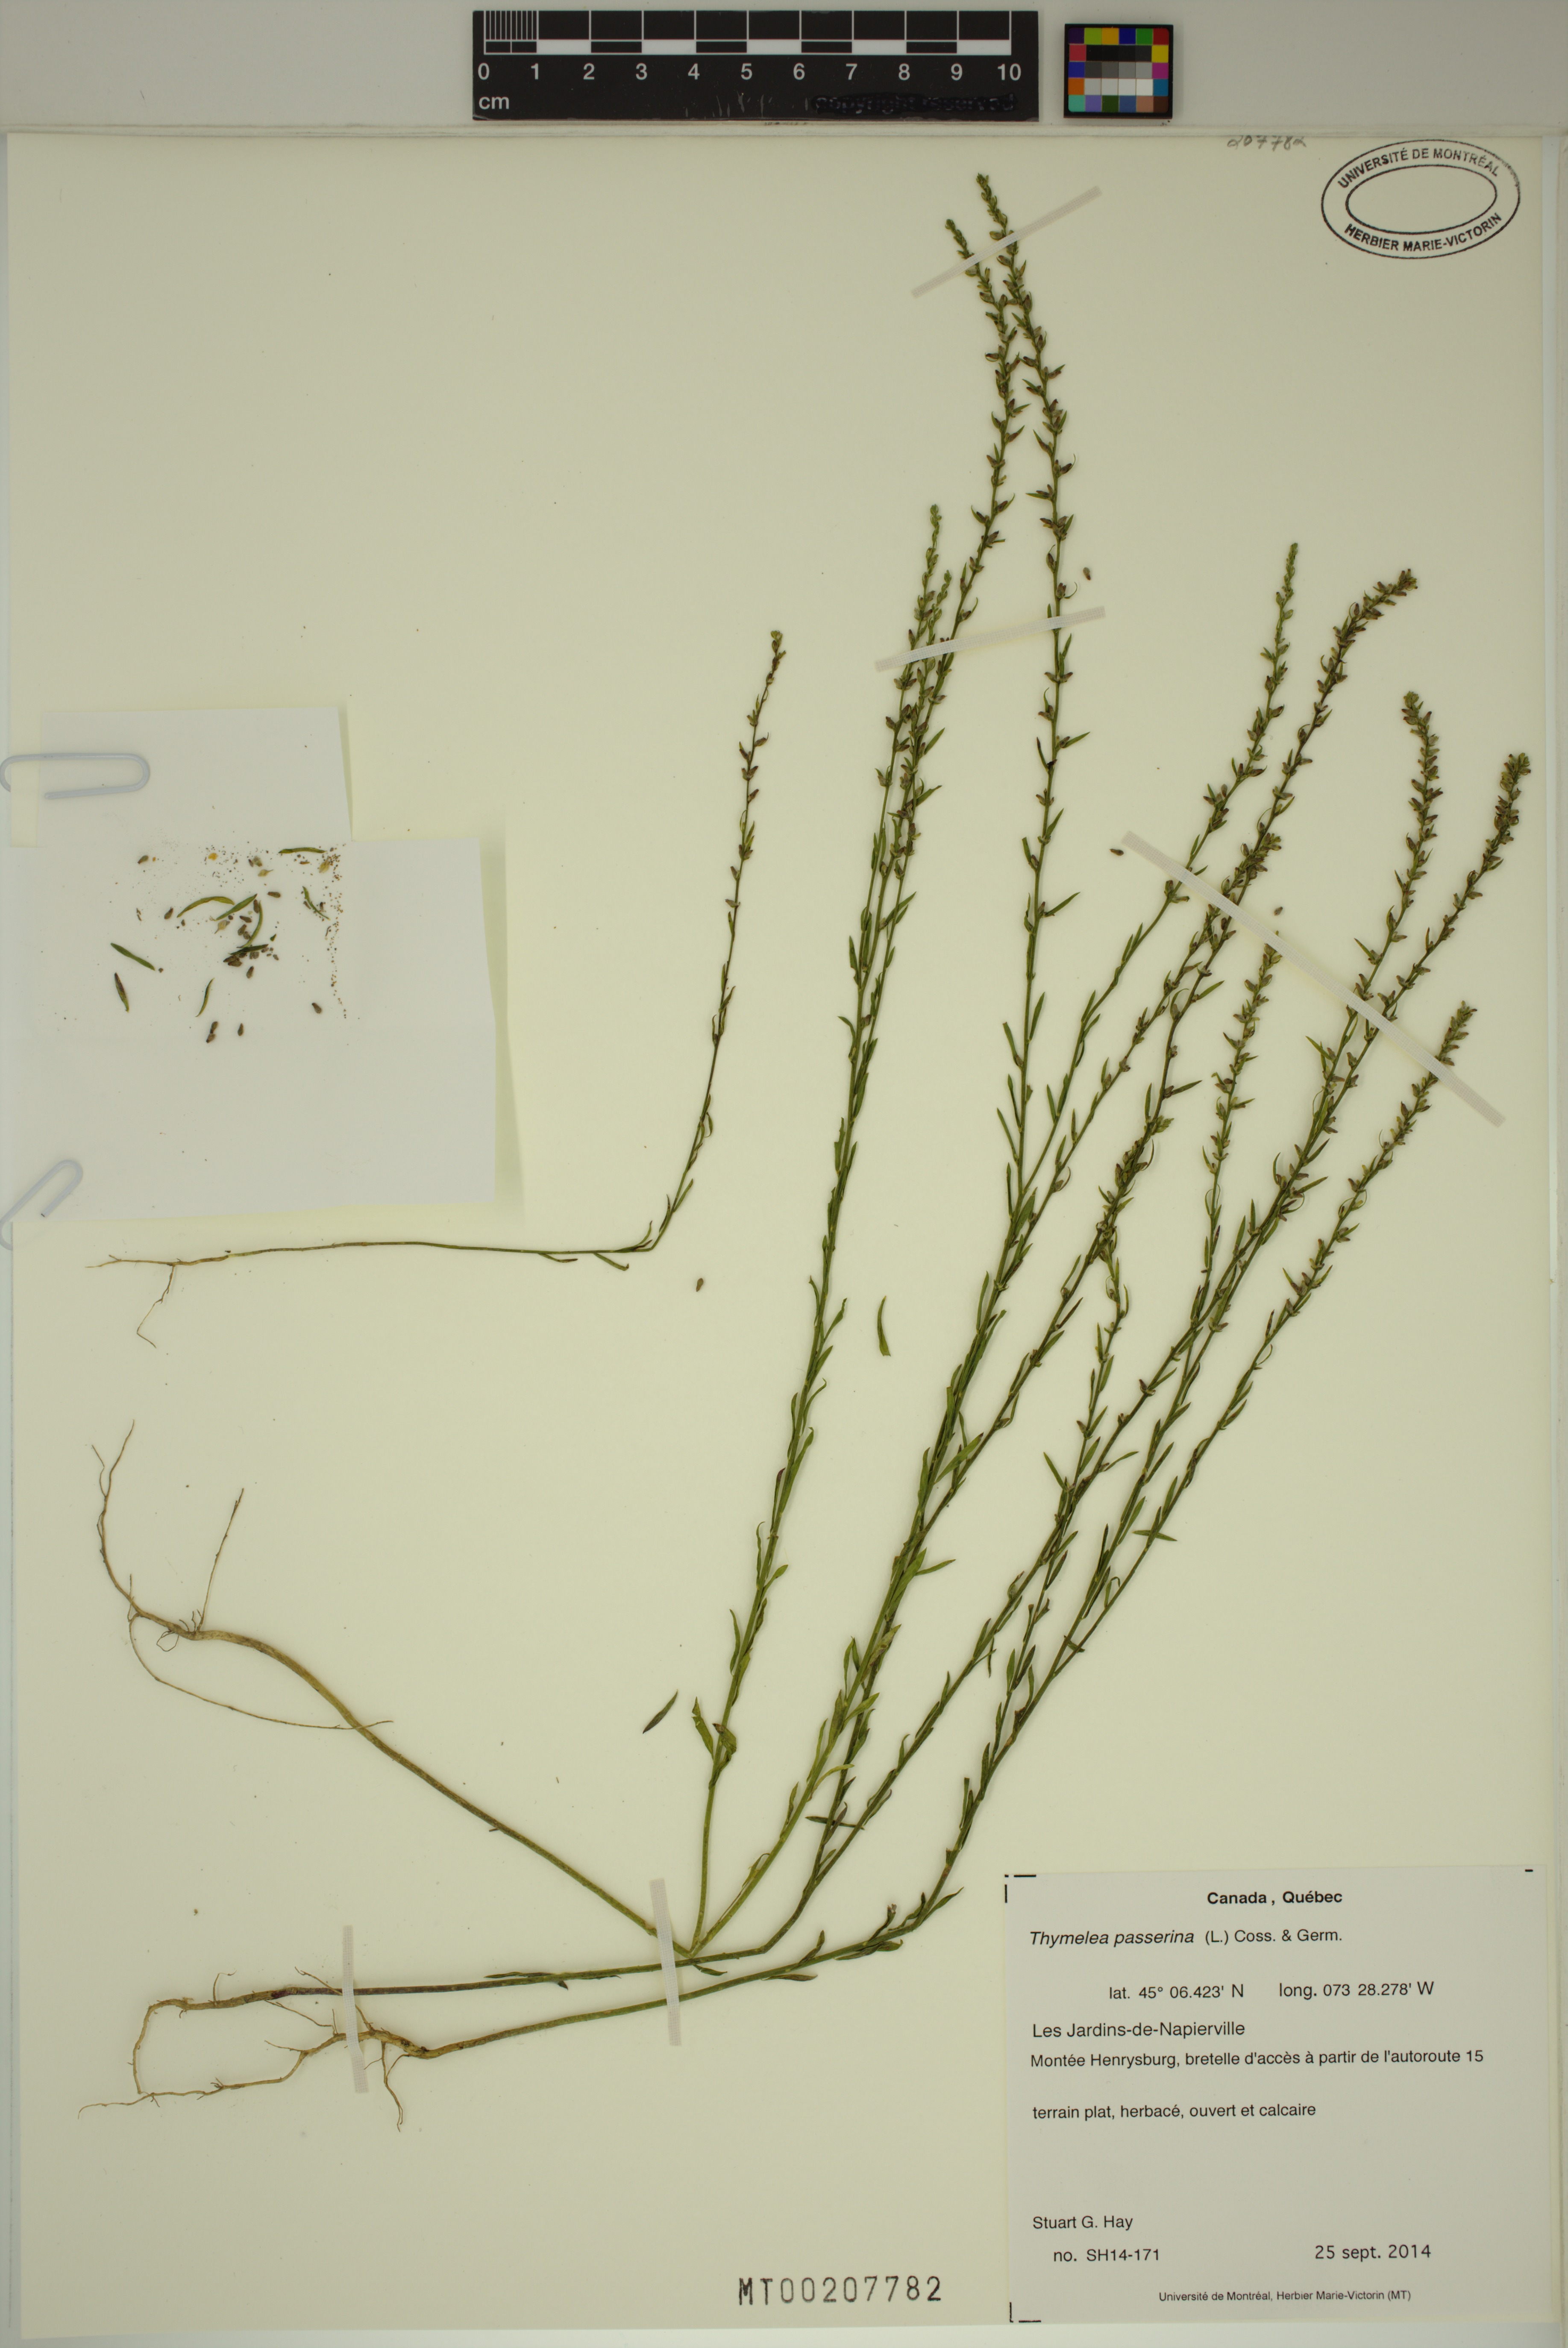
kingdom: Plantae
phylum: Tracheophyta
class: Magnoliopsida
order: Malvales
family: Thymelaeaceae
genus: Thymelaea
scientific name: Thymelaea passerina
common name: Annual thymelaea
